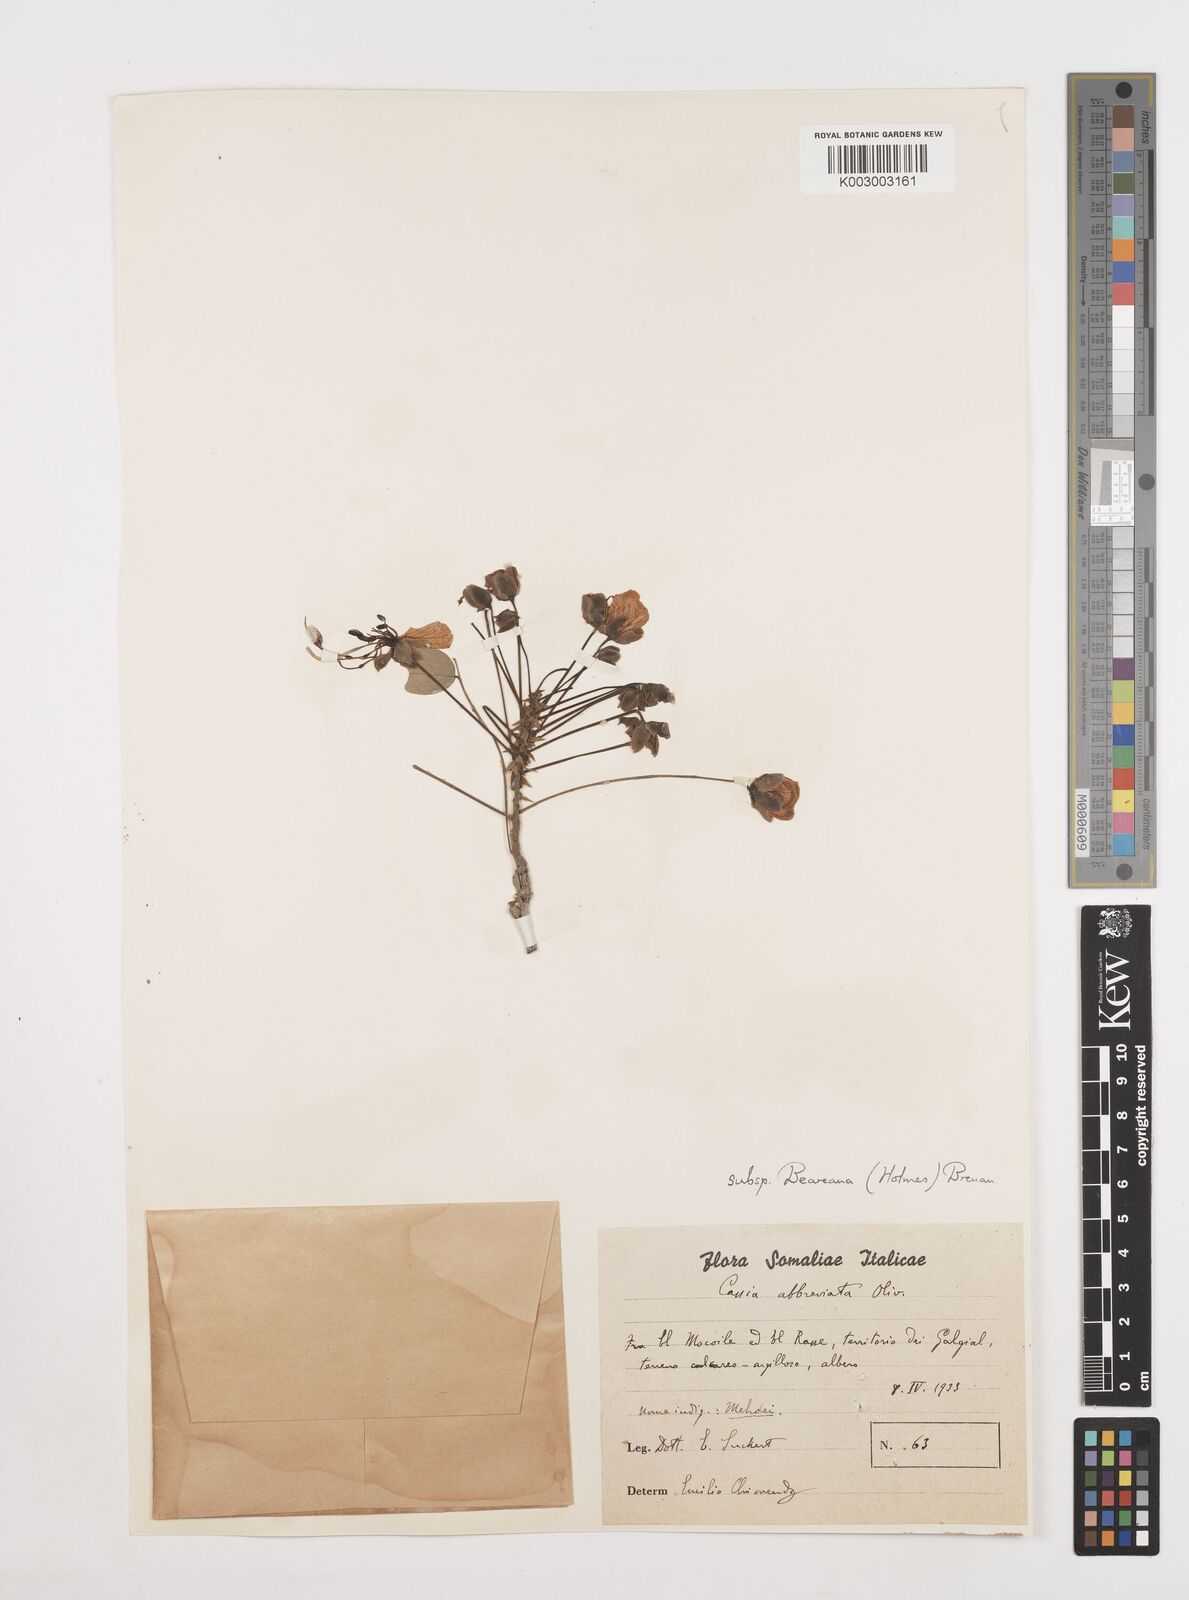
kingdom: Plantae
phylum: Tracheophyta
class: Magnoliopsida
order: Fabales
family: Fabaceae
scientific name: Fabaceae
